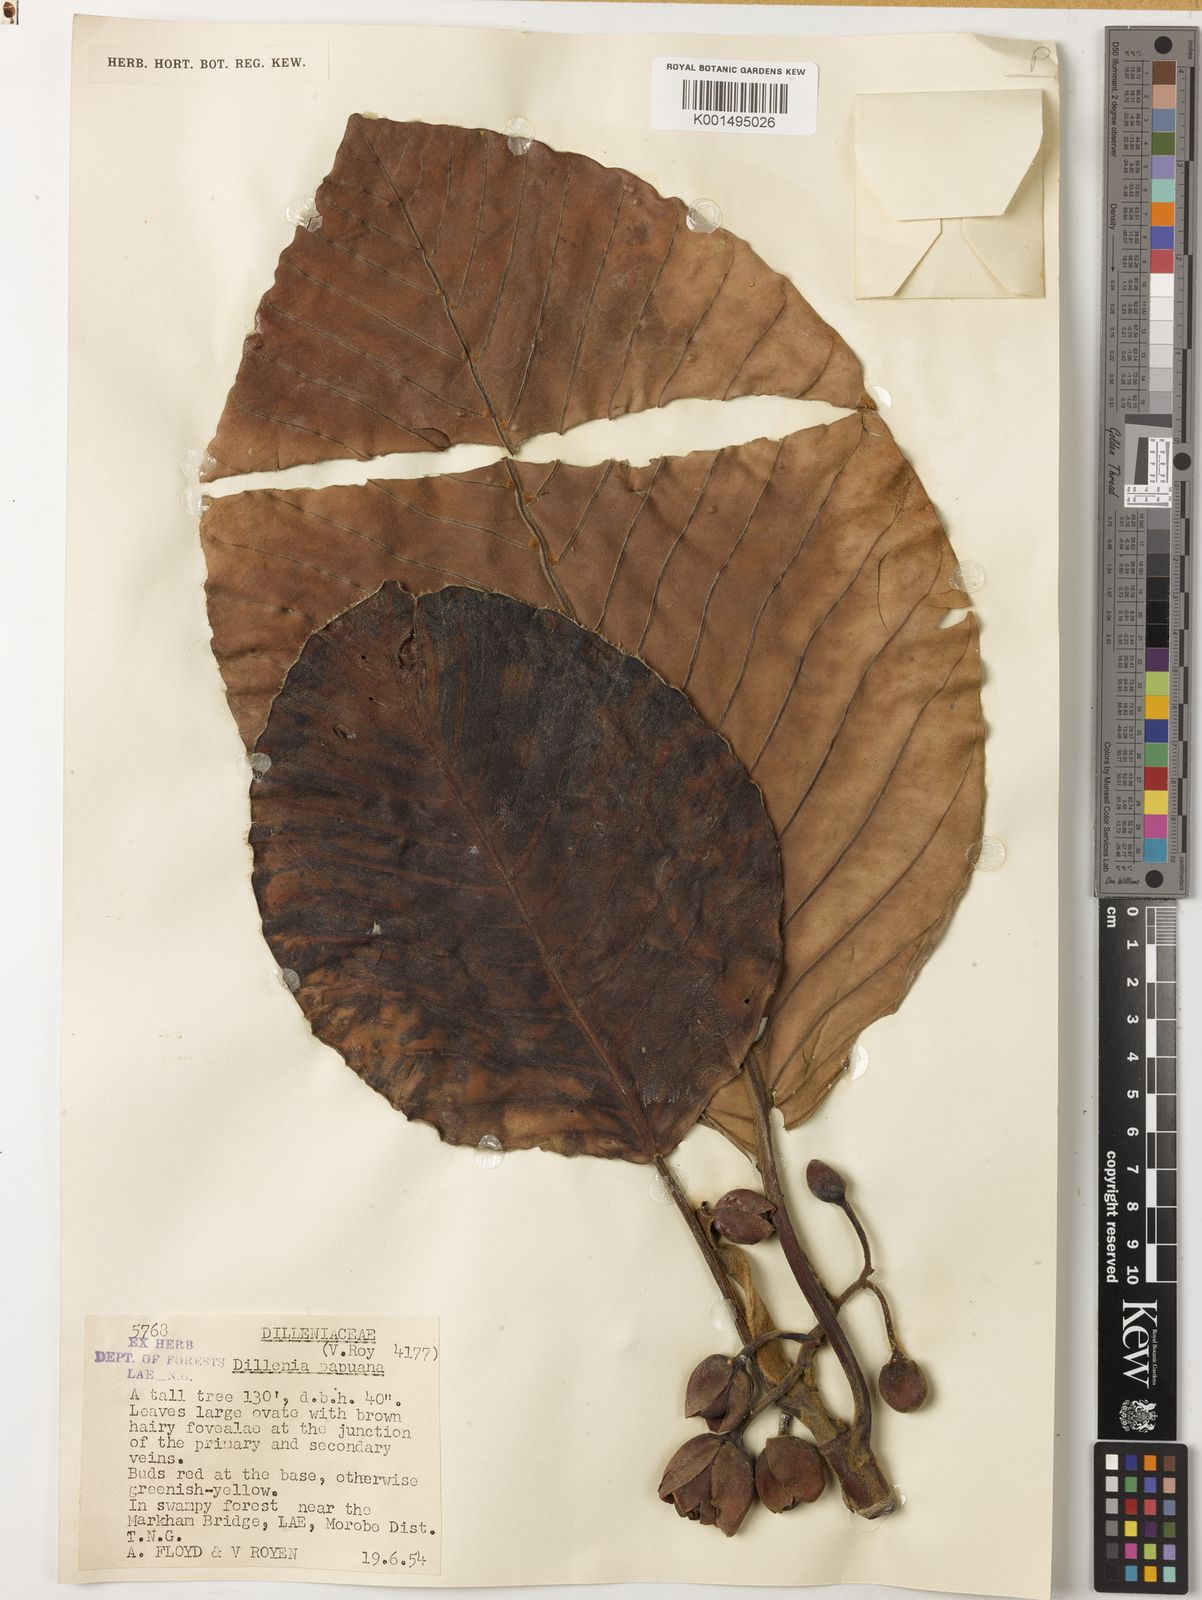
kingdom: Plantae
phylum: Tracheophyta
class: Magnoliopsida
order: Dilleniales
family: Dilleniaceae
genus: Dillenia
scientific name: Dillenia papuana
